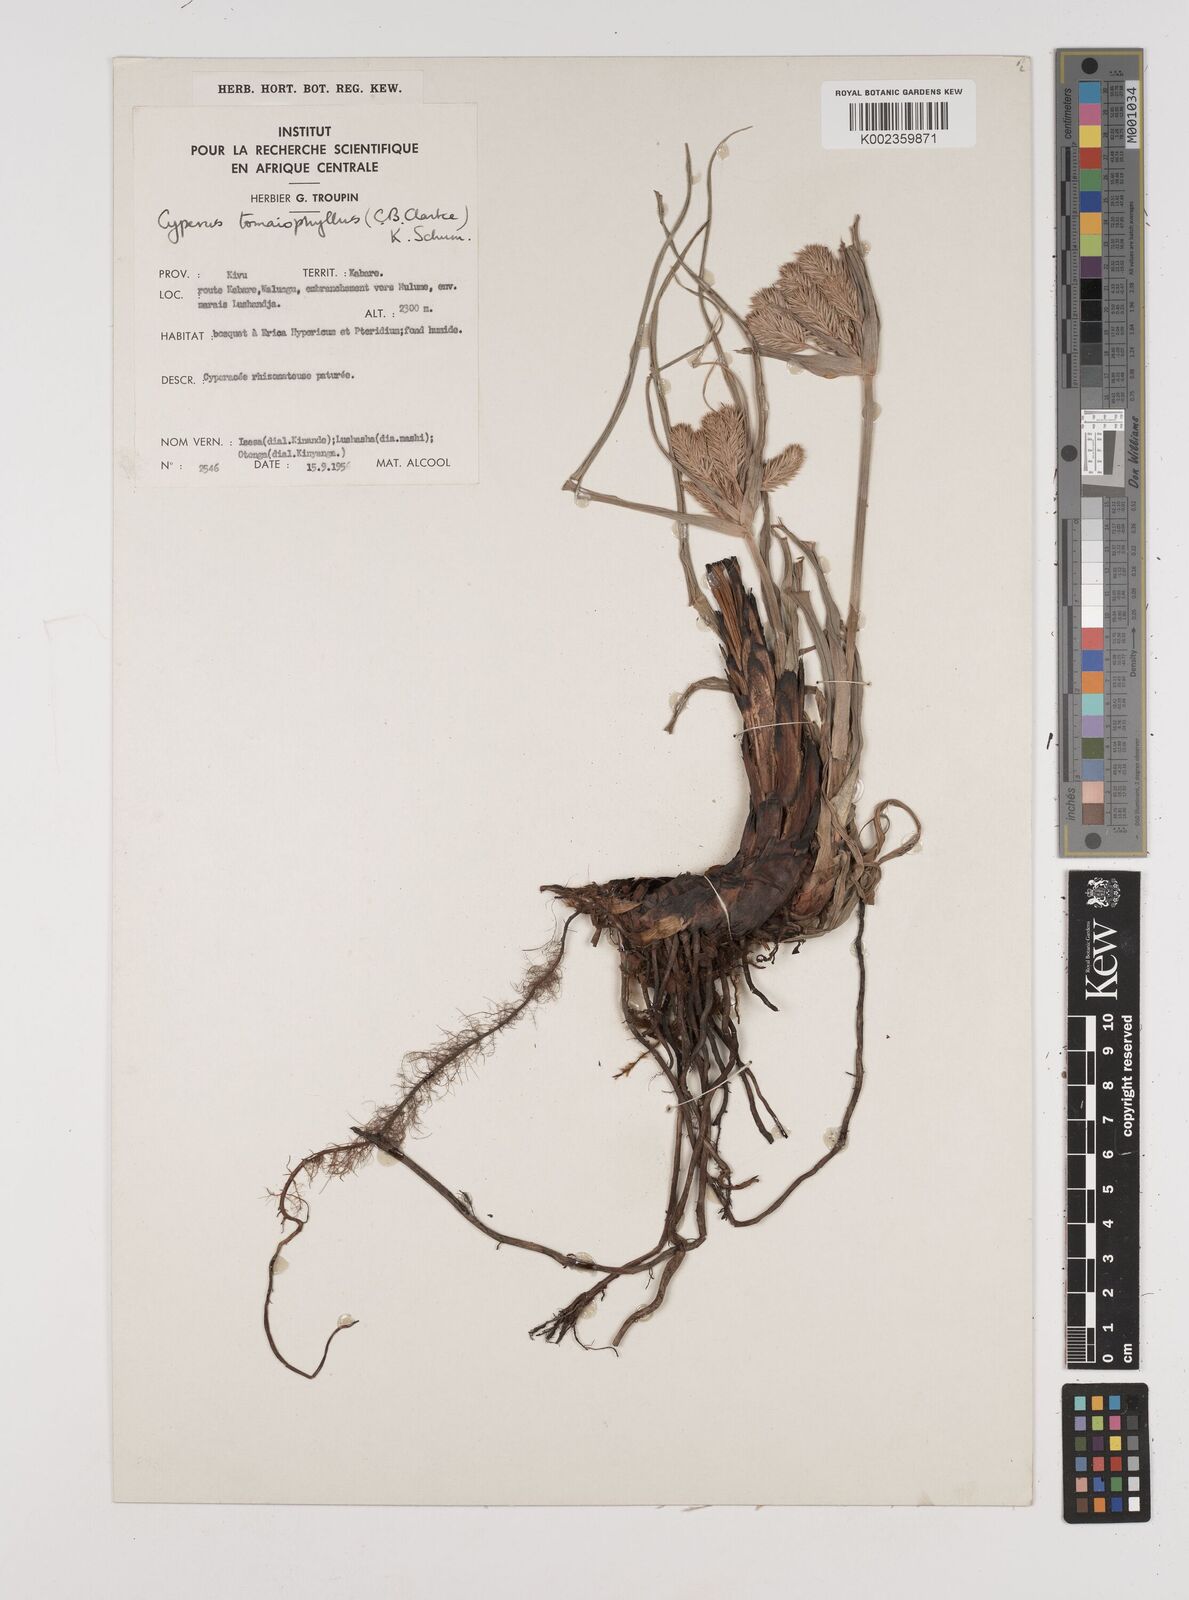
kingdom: Plantae
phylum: Tracheophyta
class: Liliopsida
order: Poales
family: Cyperaceae
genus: Cyperus
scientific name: Cyperus tomaiophyllus
